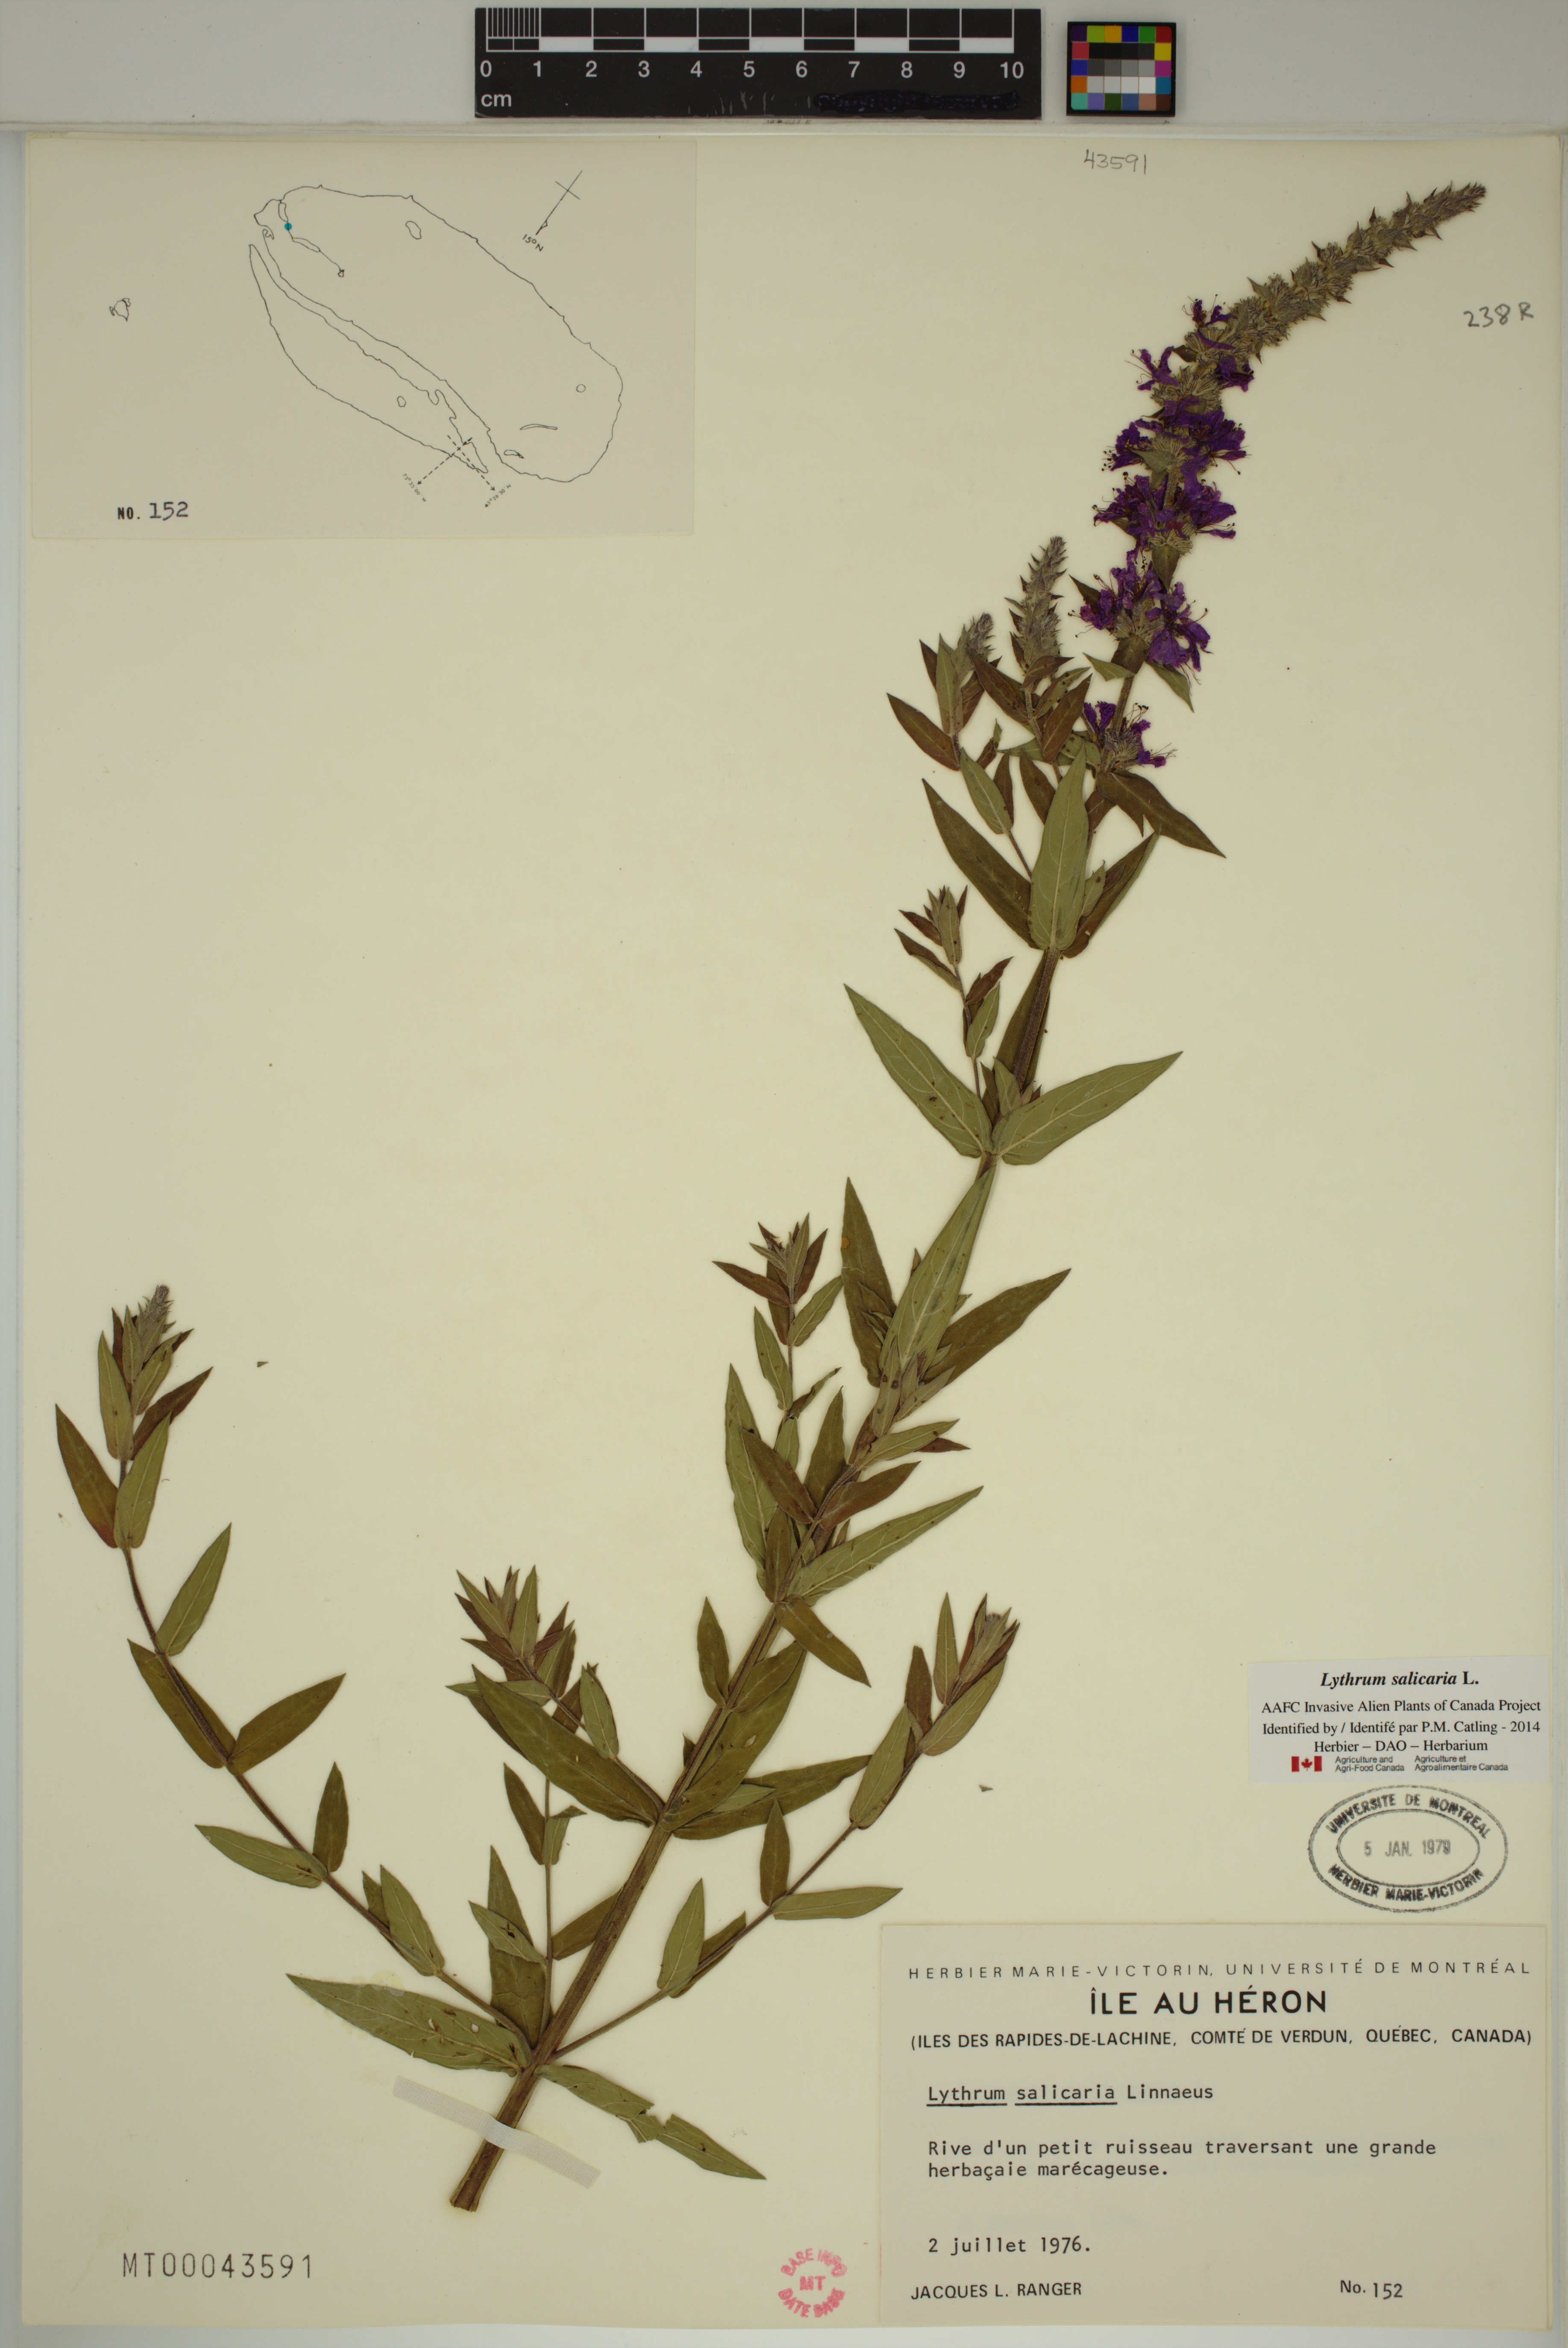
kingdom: Plantae
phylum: Tracheophyta
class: Magnoliopsida
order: Myrtales
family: Lythraceae
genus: Lythrum
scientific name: Lythrum salicaria
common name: Purple loosestrife
